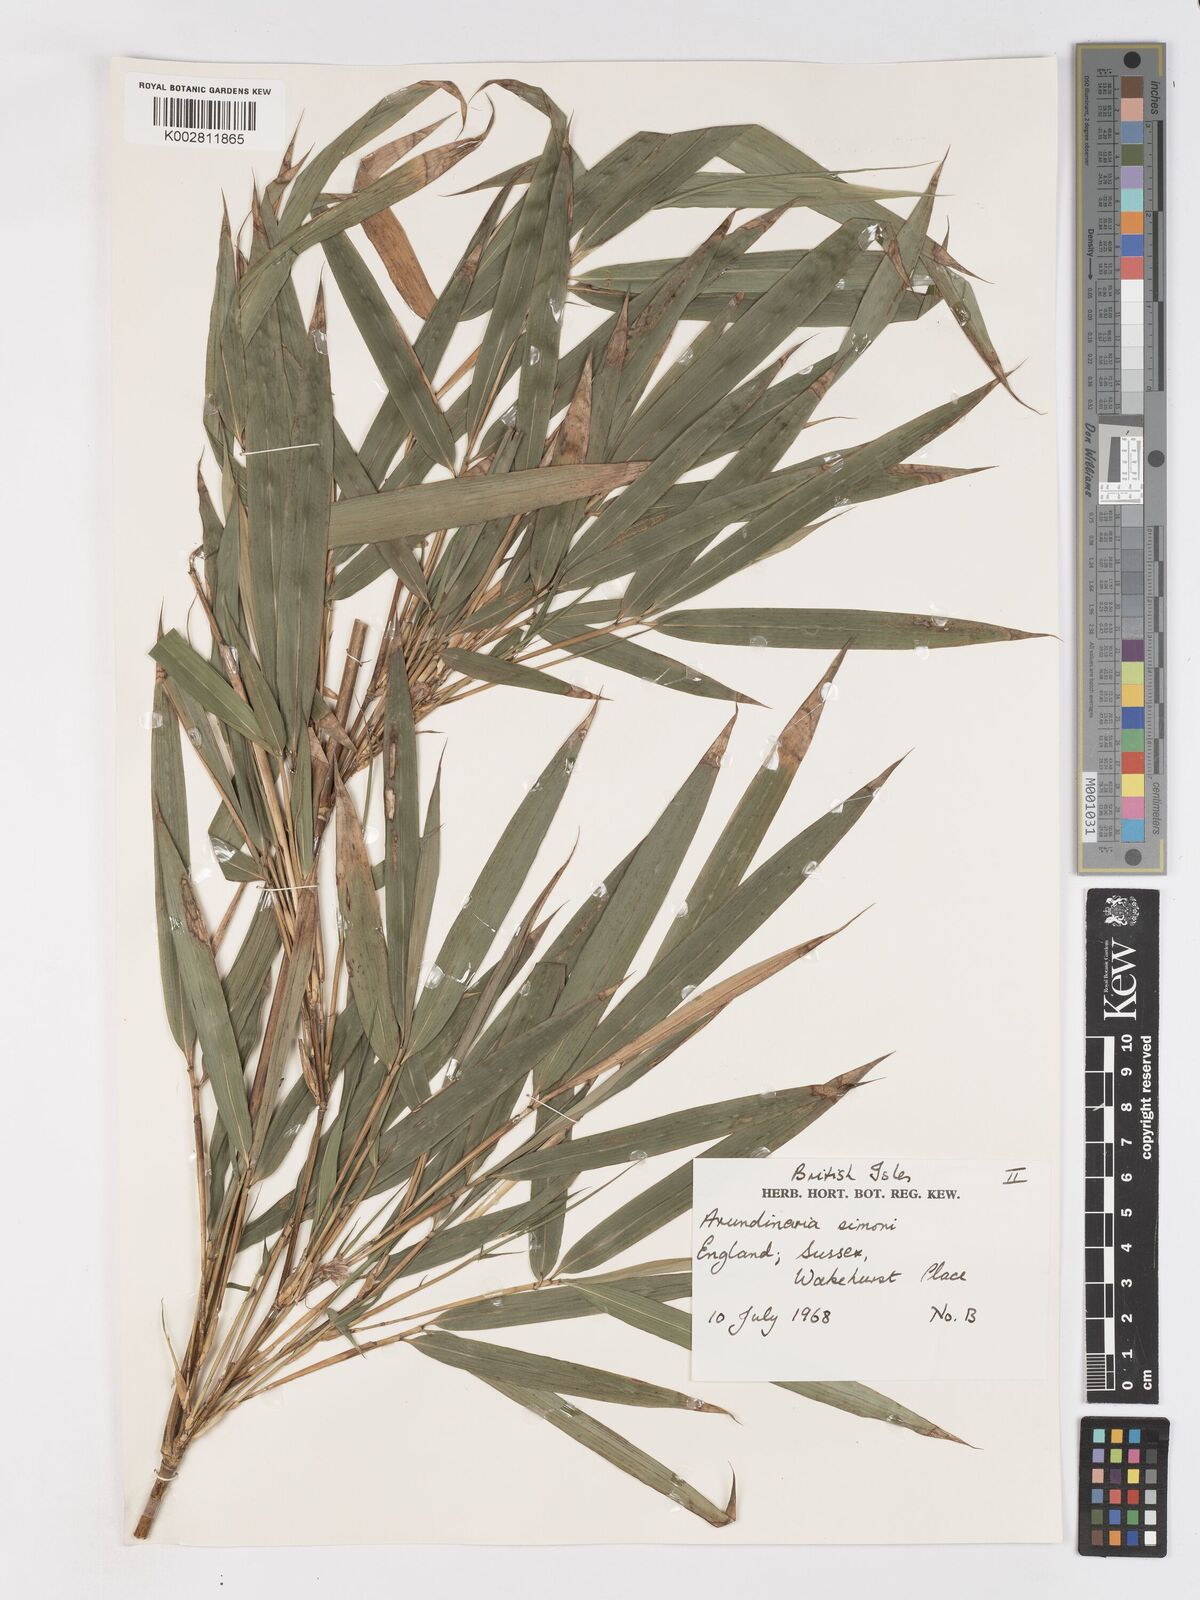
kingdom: Plantae
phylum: Tracheophyta
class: Liliopsida
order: Poales
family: Poaceae
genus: Pleioblastus
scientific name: Pleioblastus simonii
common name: Simon bamboo
